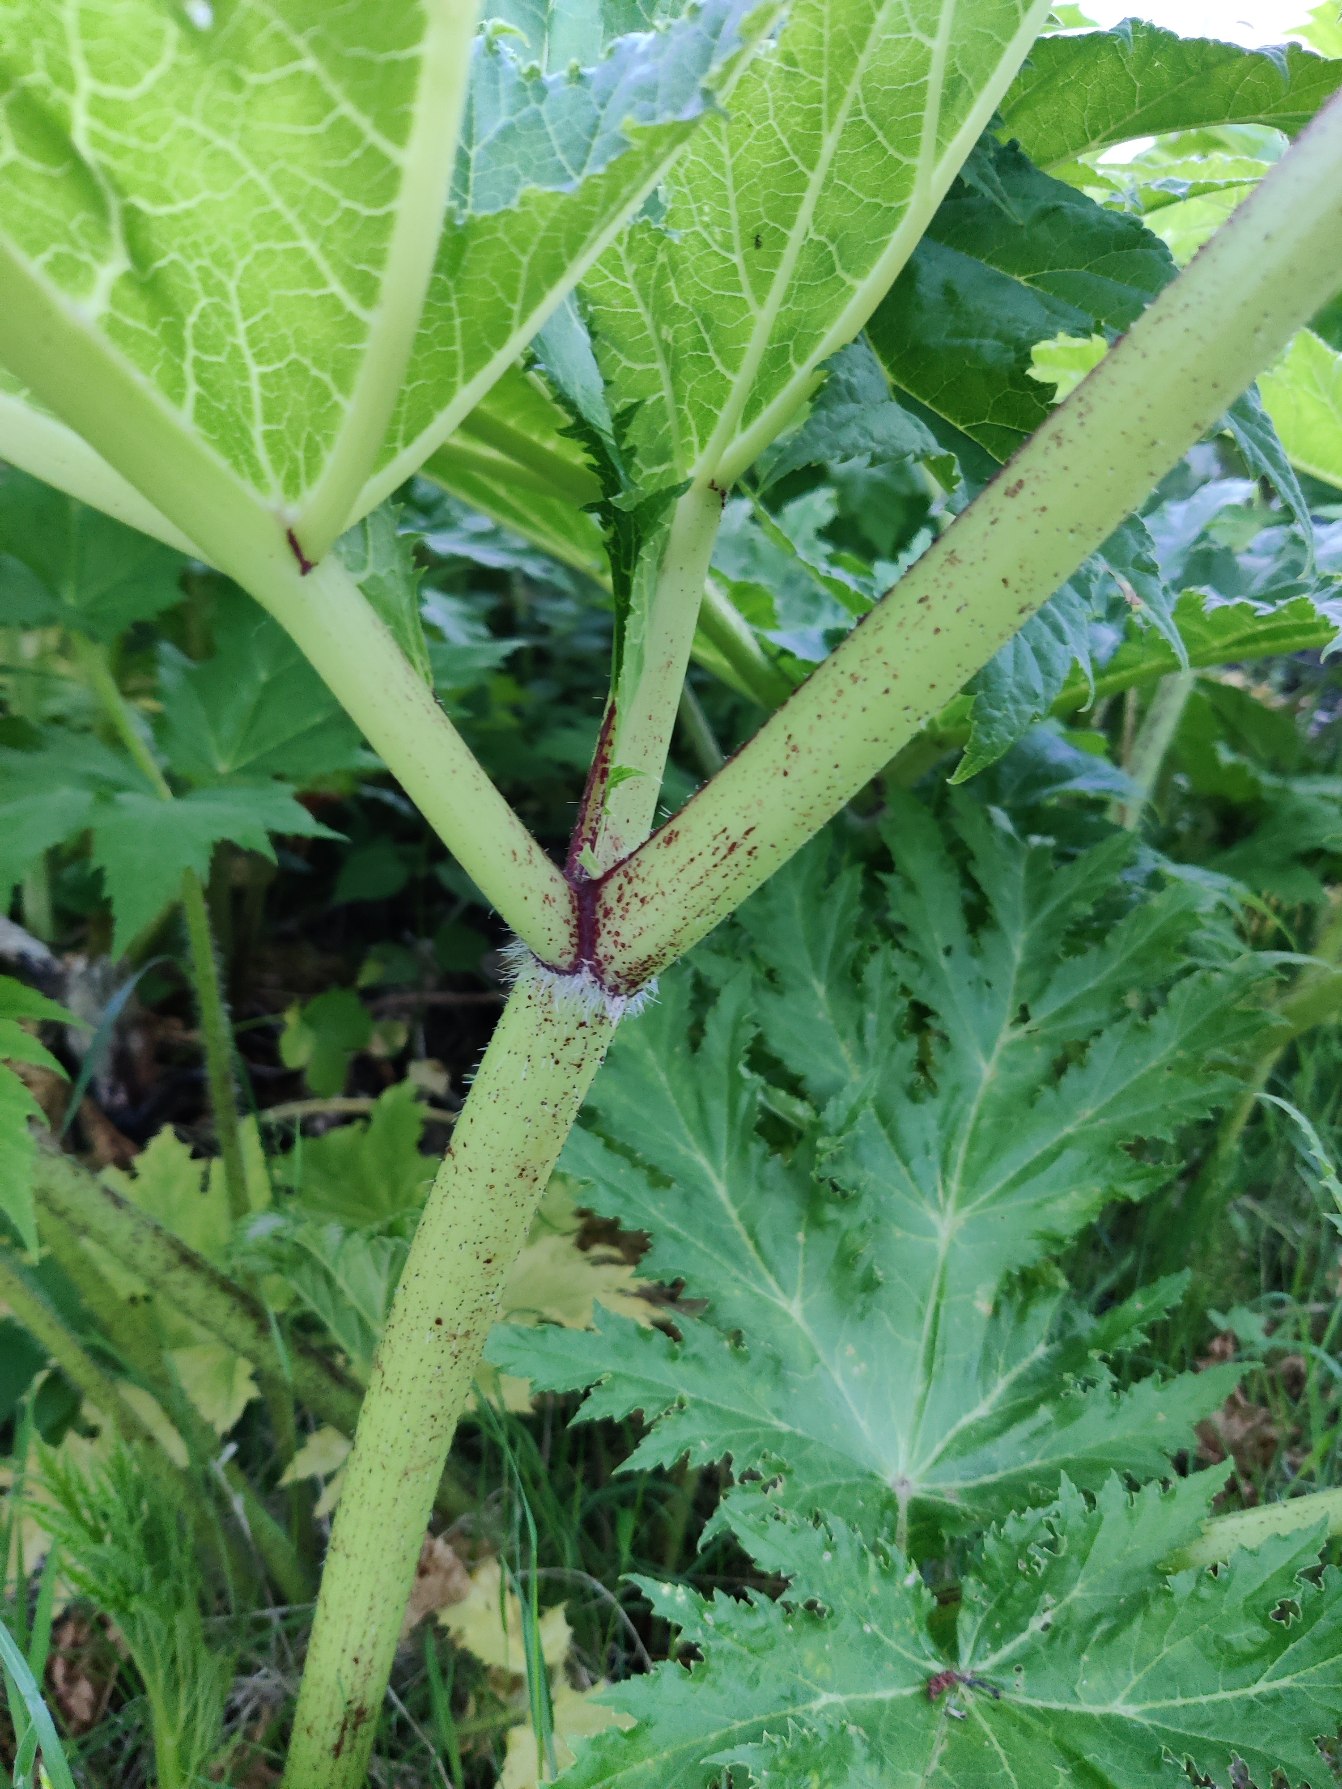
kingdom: Plantae
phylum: Tracheophyta
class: Magnoliopsida
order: Apiales
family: Apiaceae
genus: Heracleum
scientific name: Heracleum mantegazzianum
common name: Kæmpe-bjørneklo
